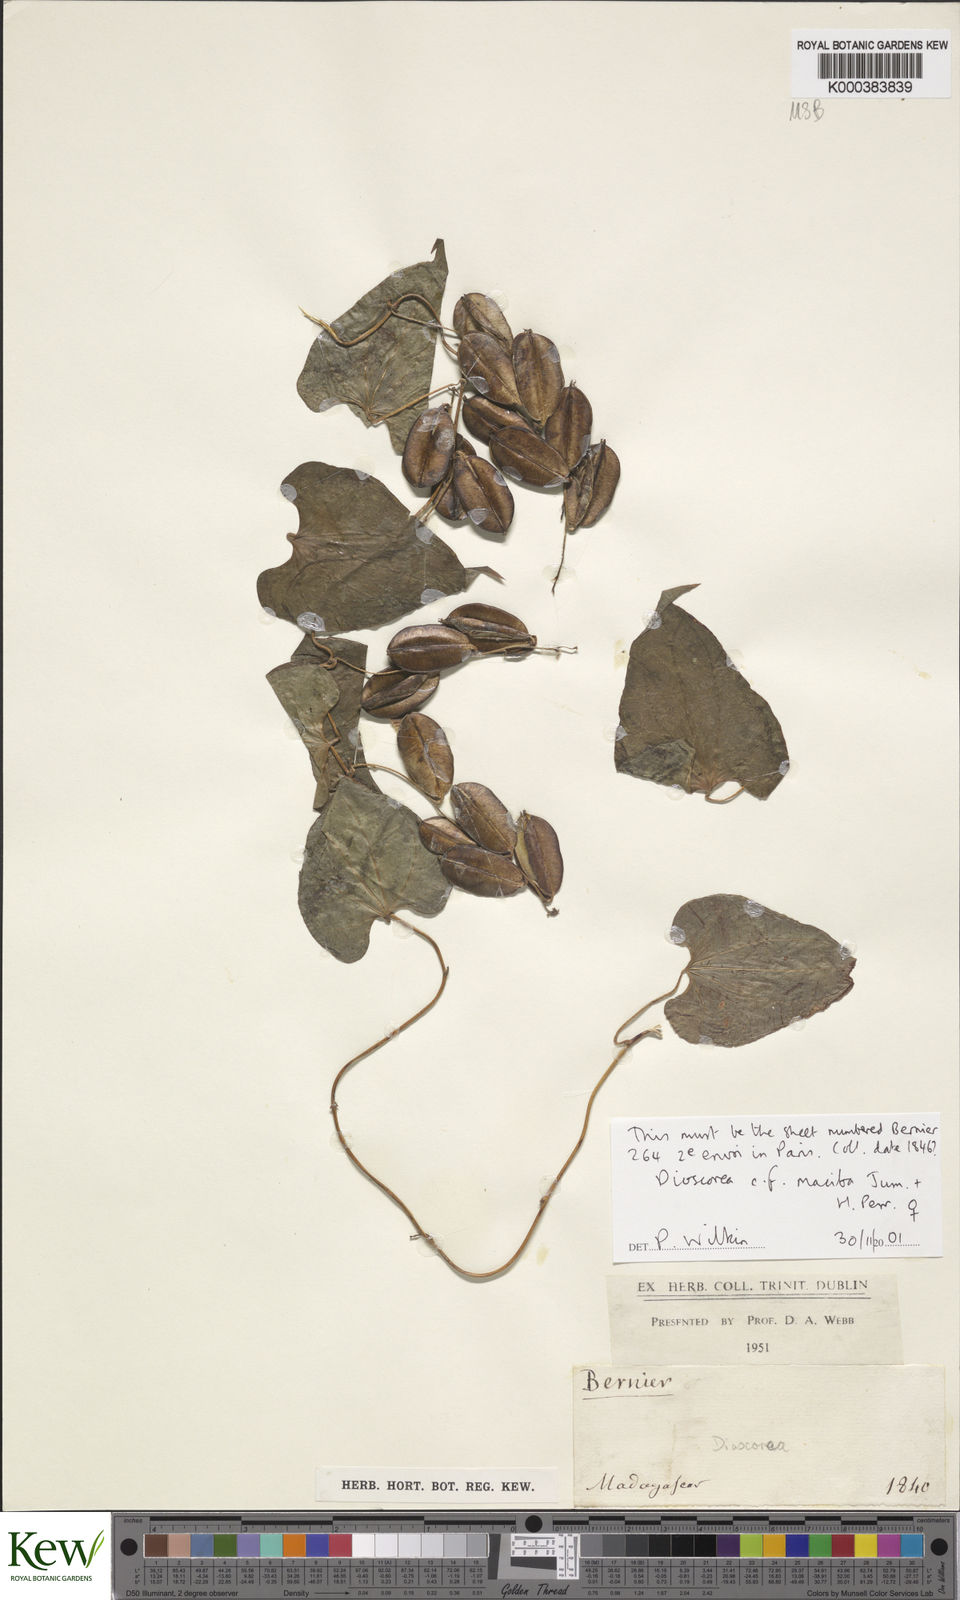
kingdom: Plantae
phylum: Tracheophyta
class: Liliopsida
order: Dioscoreales
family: Dioscoreaceae
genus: Dioscorea
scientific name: Dioscorea maciba
